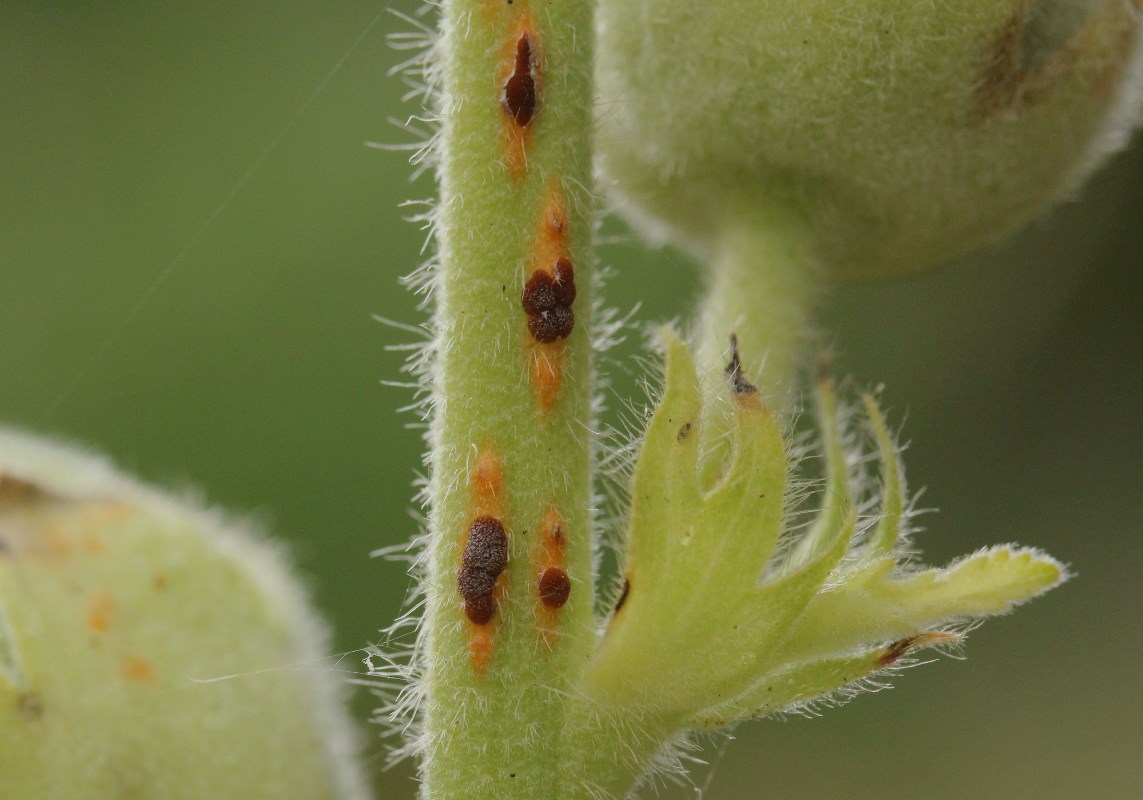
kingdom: Fungi
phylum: Basidiomycota
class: Pucciniomycetes
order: Pucciniales
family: Pucciniaceae
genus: Puccinia
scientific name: Puccinia malvacearum
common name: stokrose-tvecellerust
